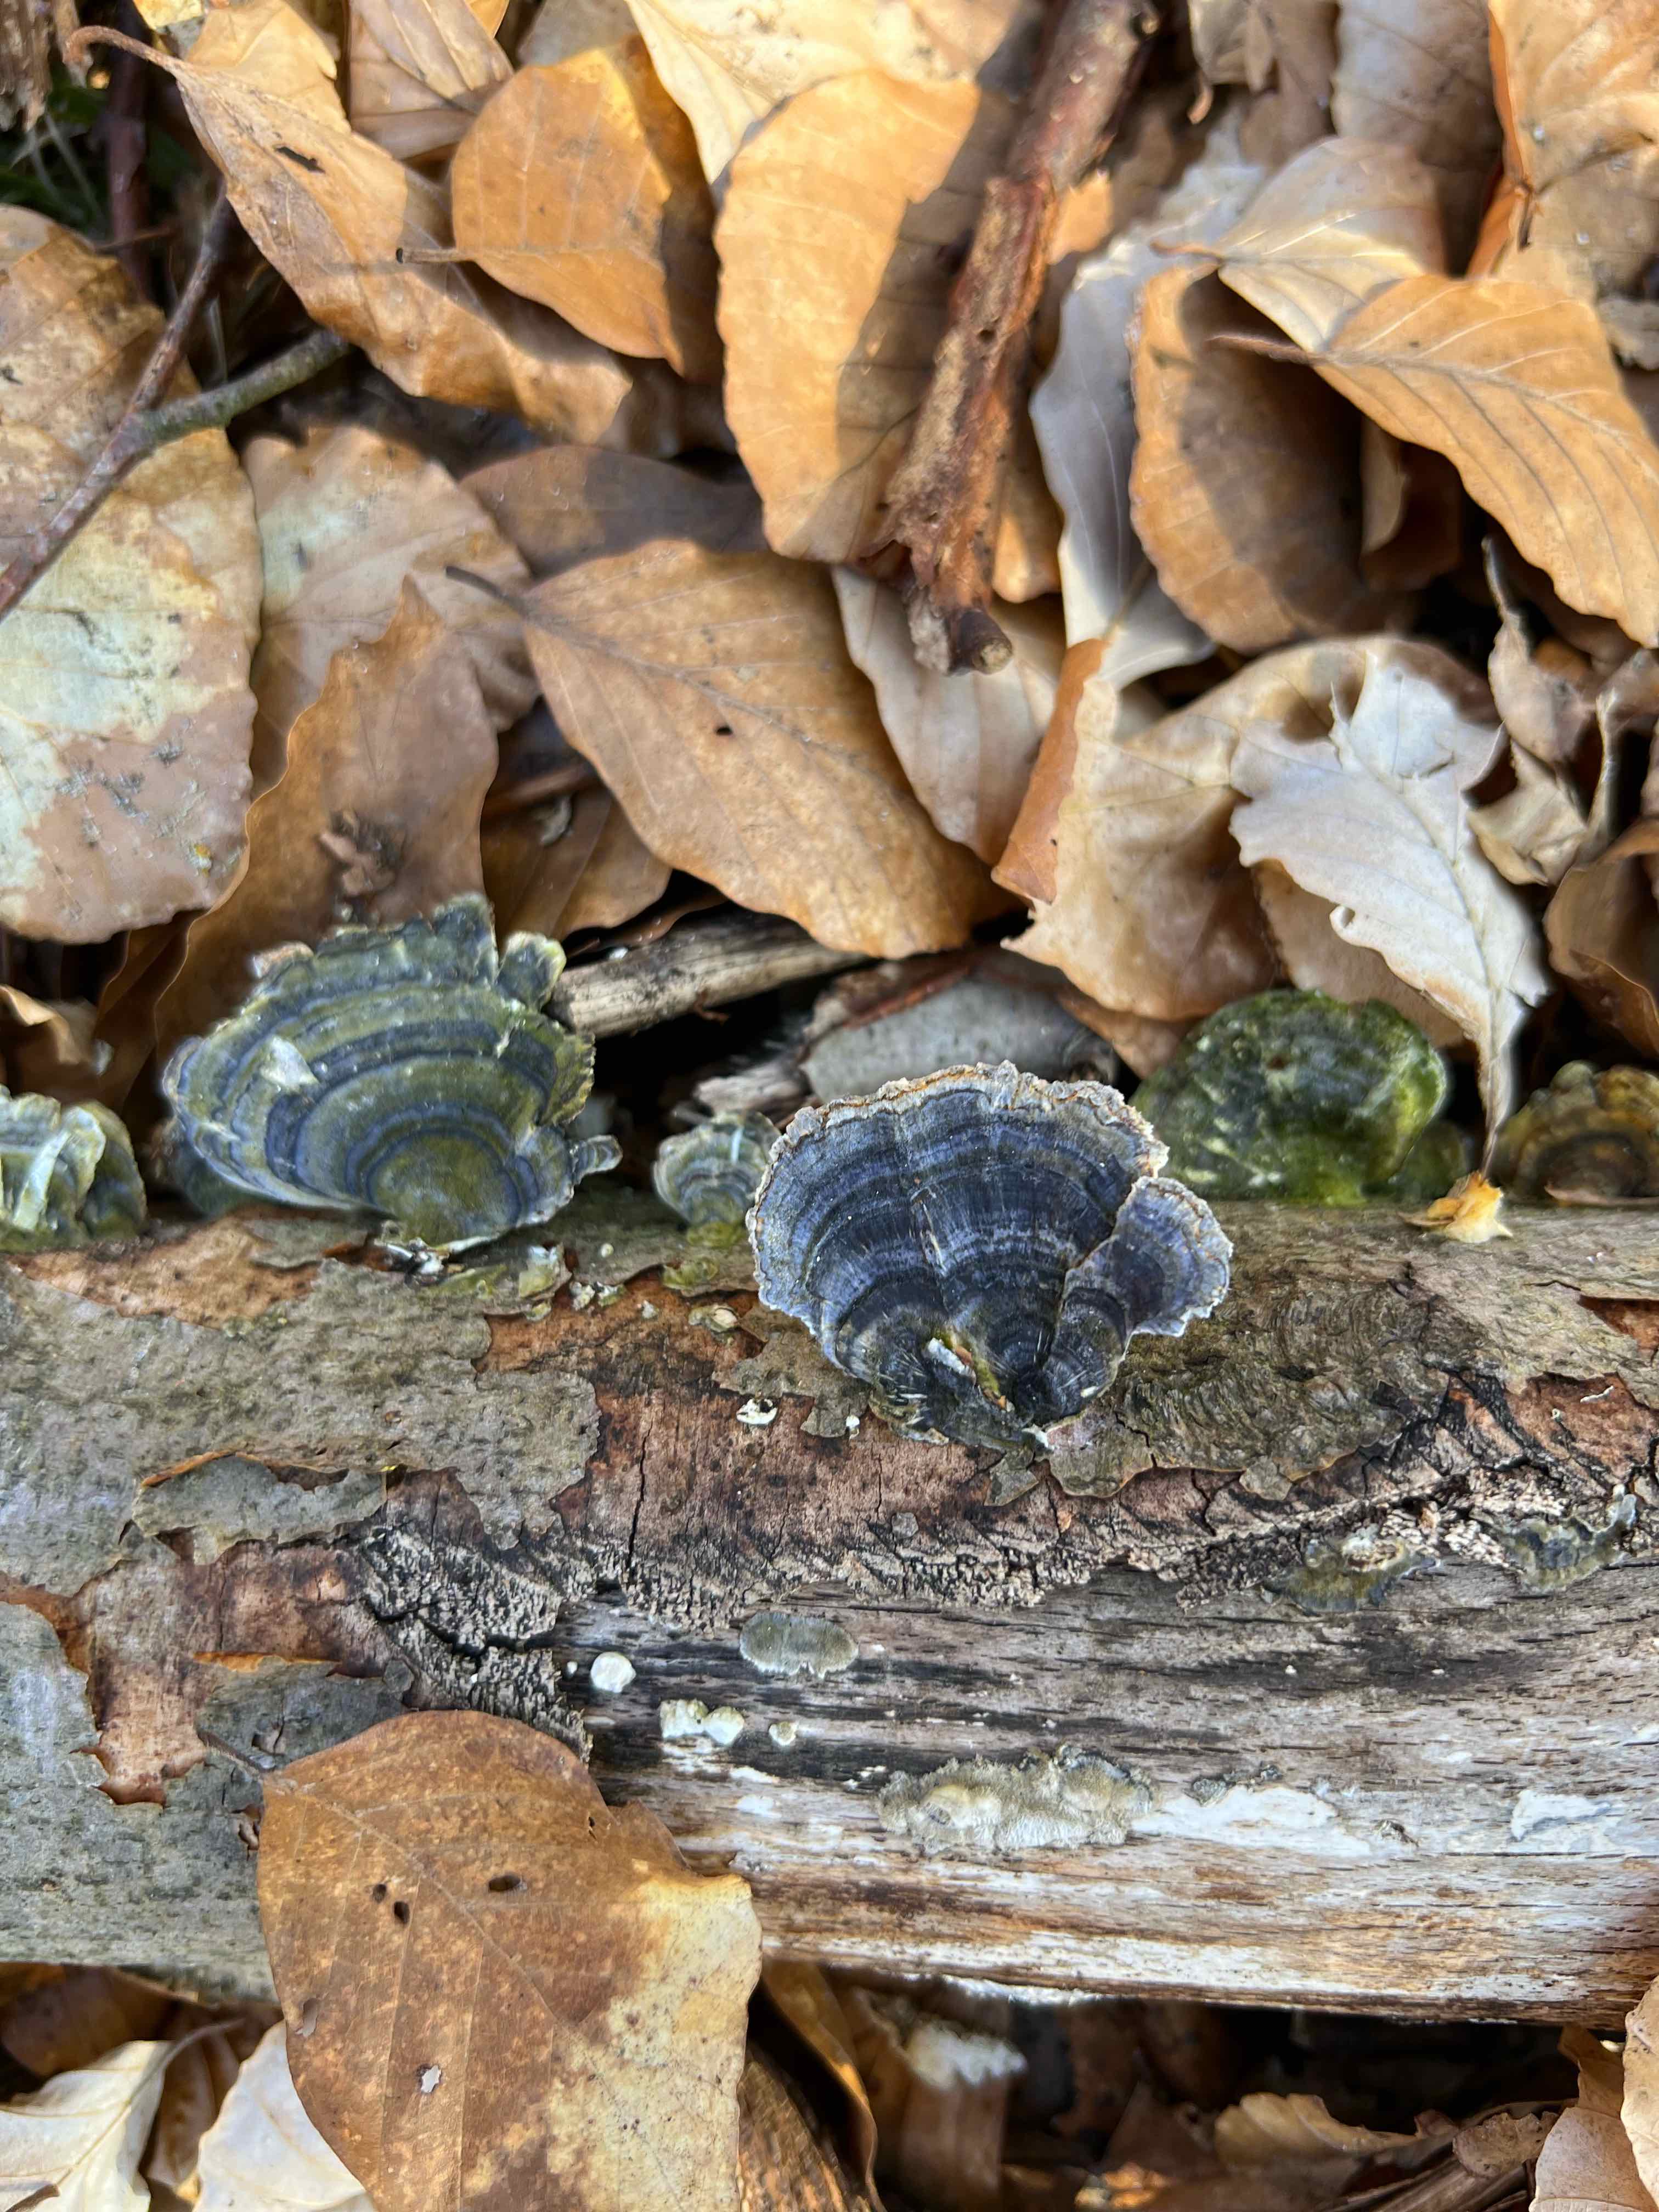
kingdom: Fungi
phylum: Basidiomycota
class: Agaricomycetes
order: Polyporales
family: Polyporaceae
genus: Trametes
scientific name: Trametes versicolor
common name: broget læderporesvamp
